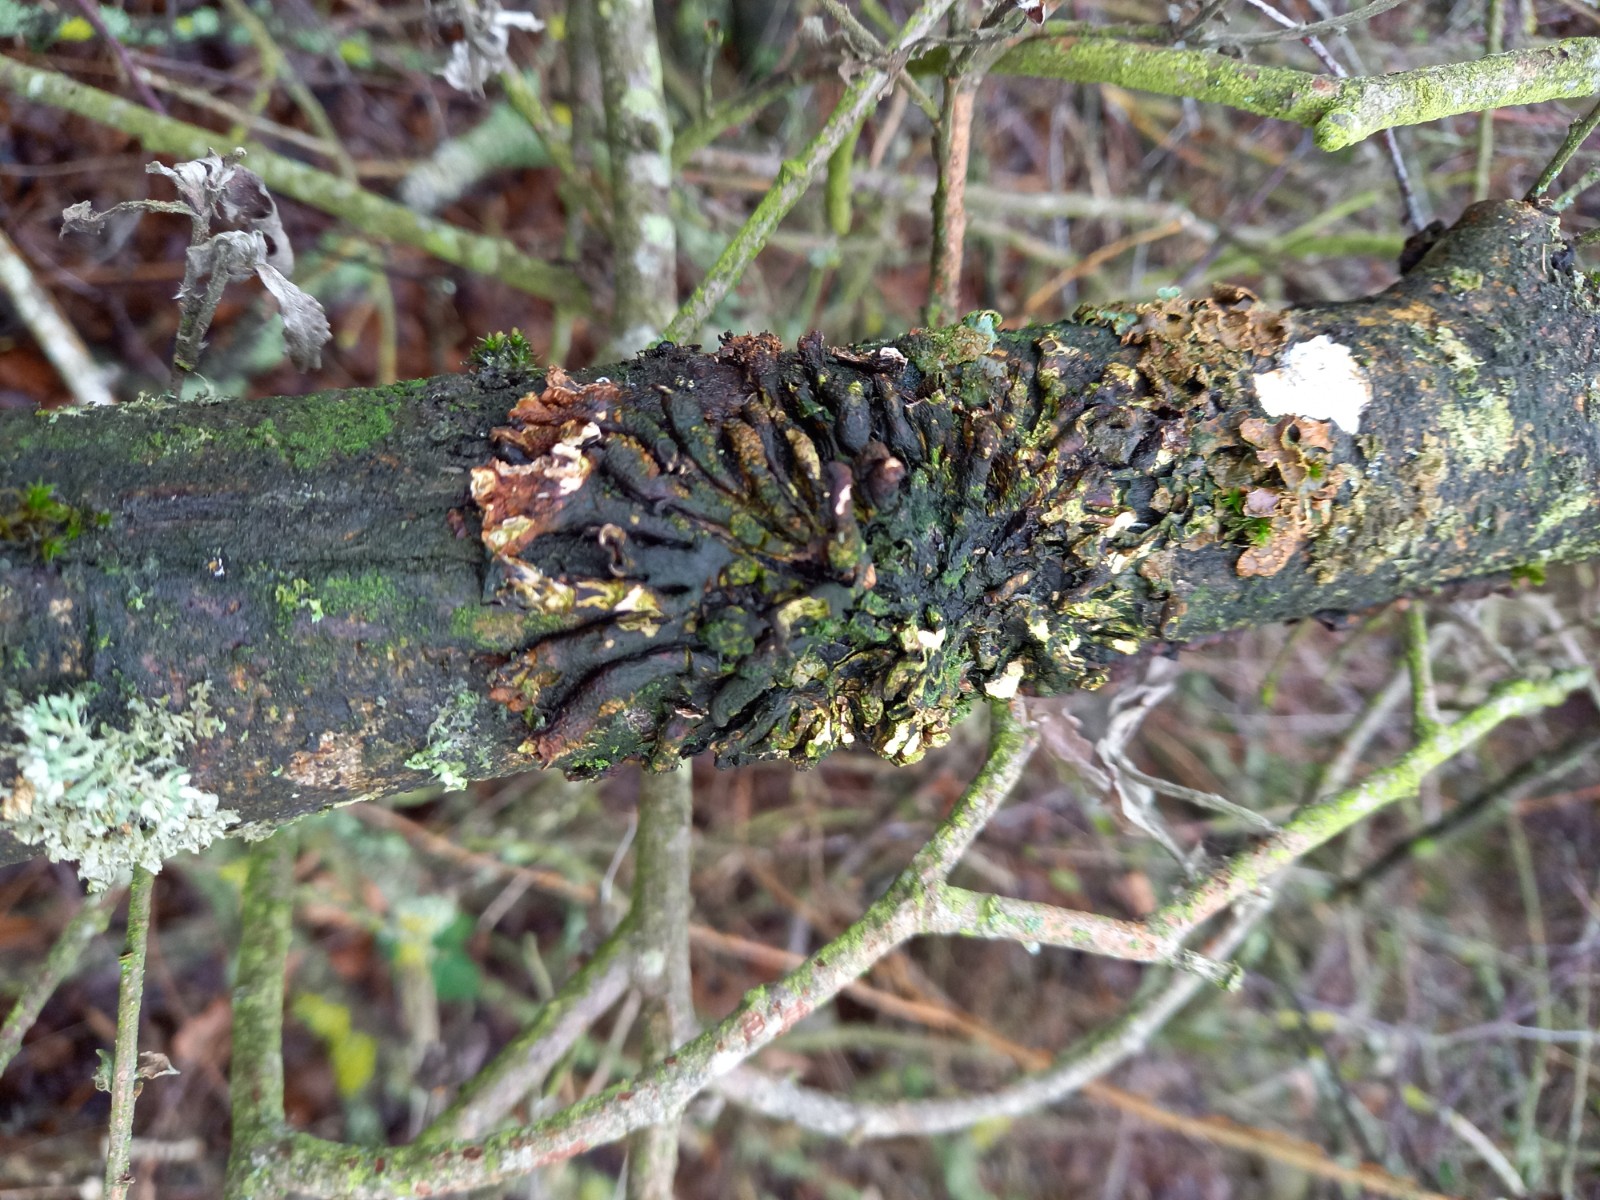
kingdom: Fungi
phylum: Ascomycota
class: Sordariomycetes
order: Hypocreales
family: Hypocreaceae
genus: Hypocreopsis
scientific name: Hypocreopsis lichenoides
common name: pilfinger
